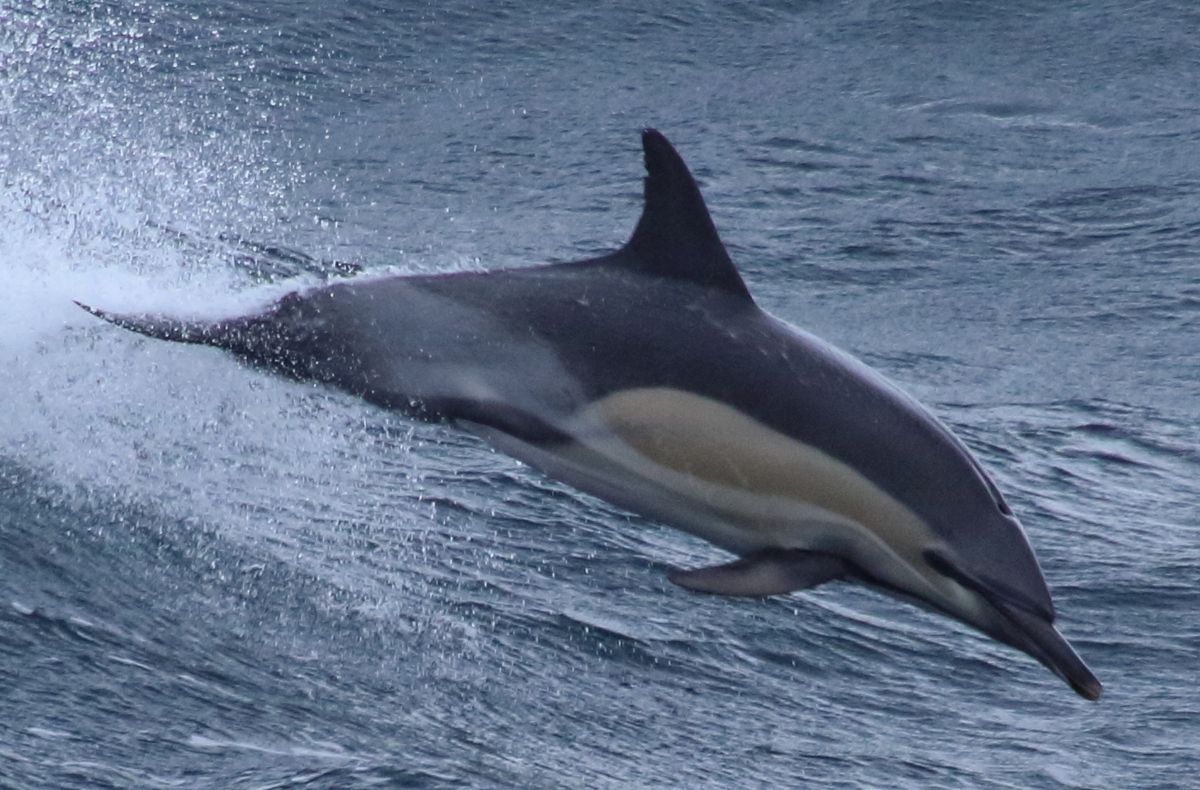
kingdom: Animalia
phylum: Chordata
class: Mammalia
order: Cetacea
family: Delphinidae
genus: Delphinus
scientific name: Delphinus delphis
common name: Short-beaked Common Dolphin
